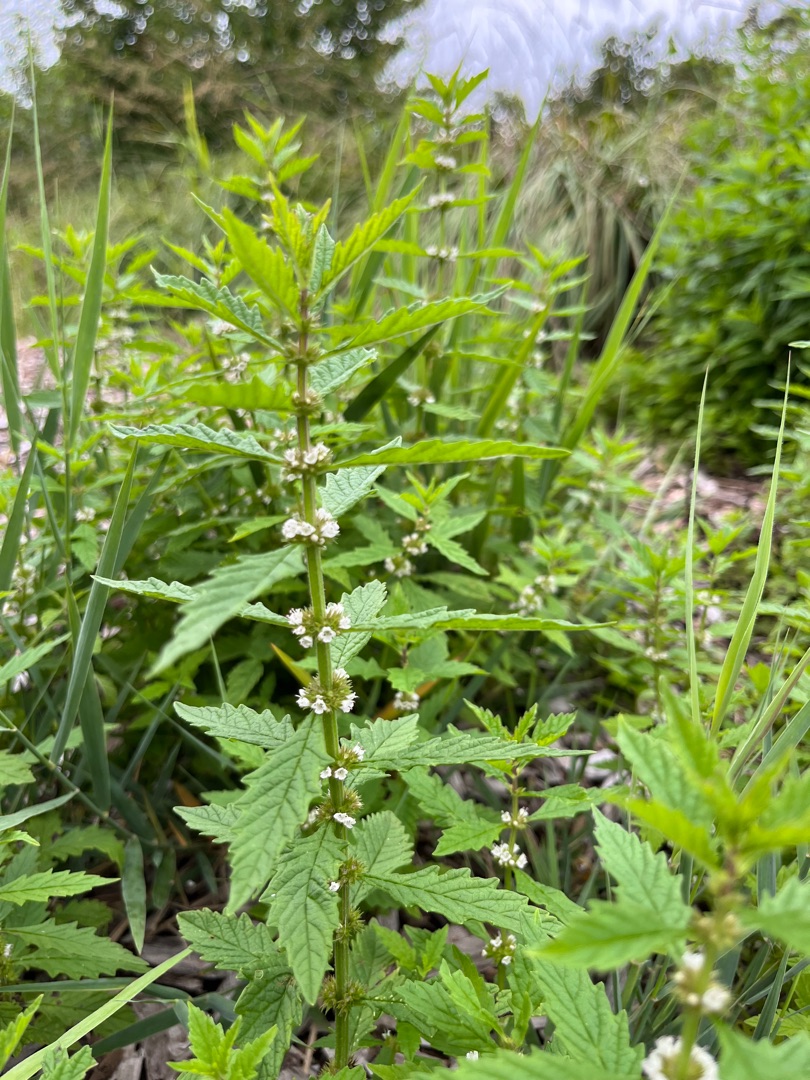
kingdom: Plantae
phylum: Tracheophyta
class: Magnoliopsida
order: Lamiales
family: Lamiaceae
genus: Lycopus
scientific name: Lycopus europaeus
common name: Sværtevæld
